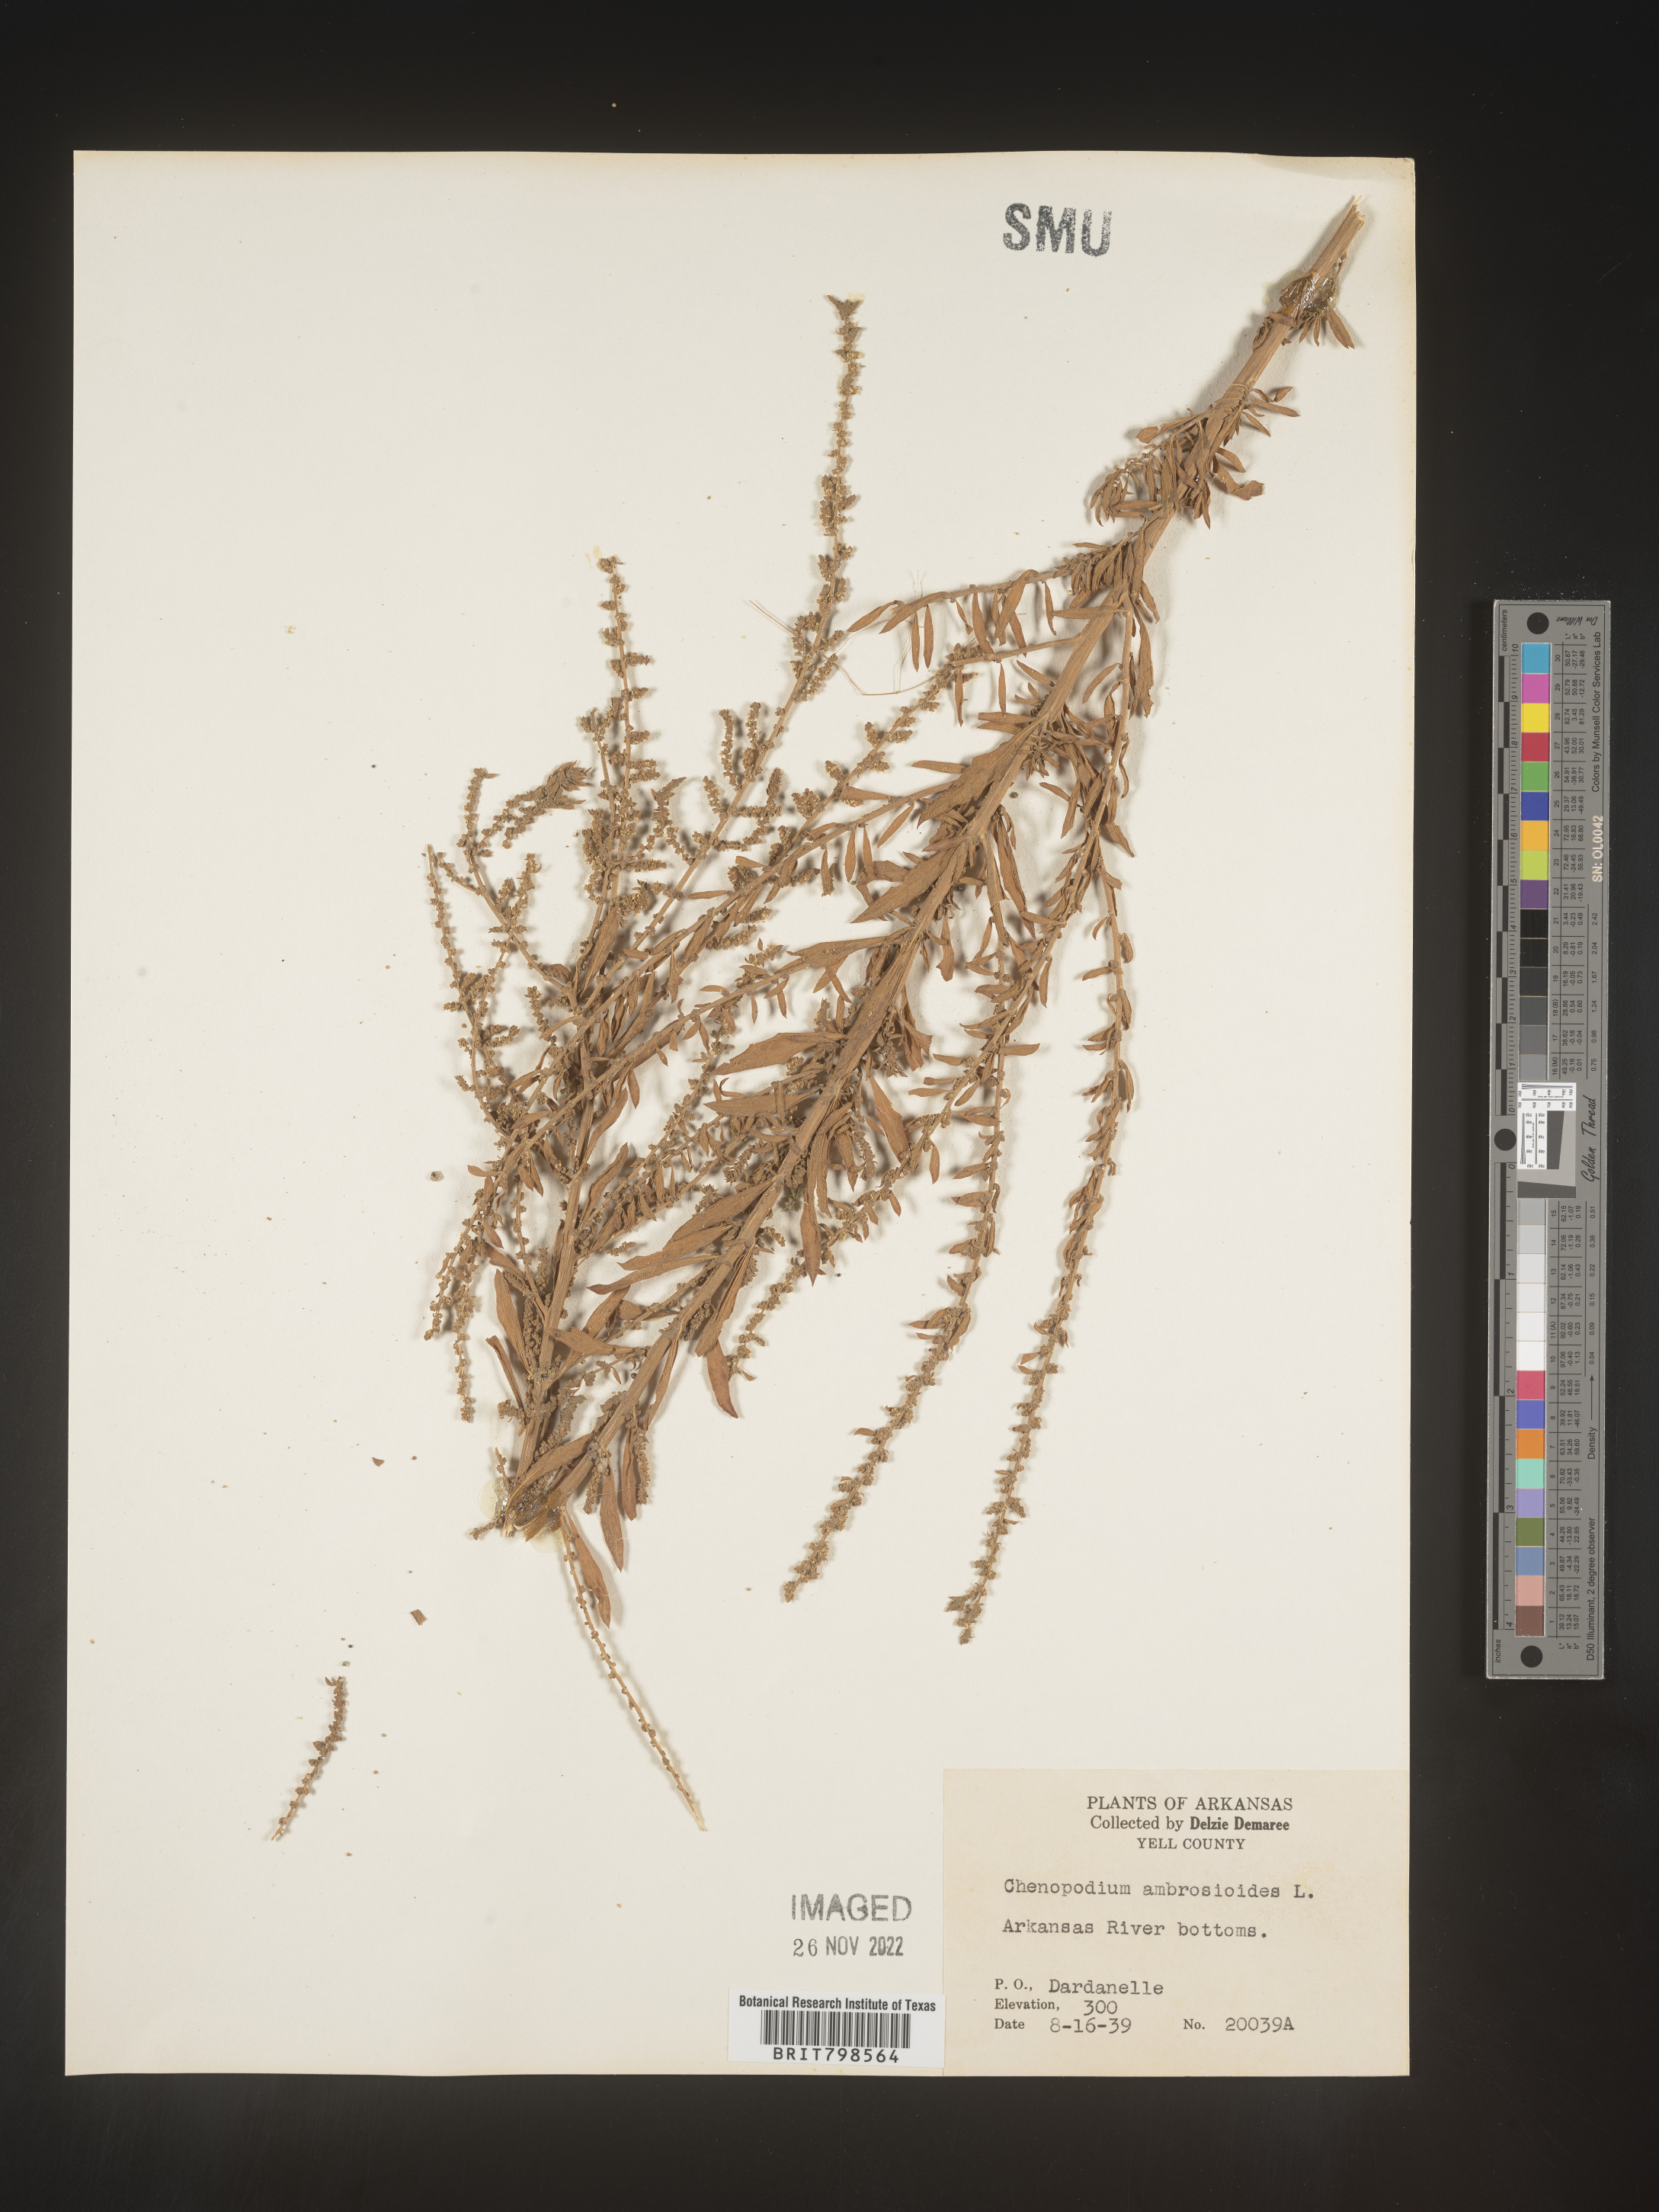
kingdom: Plantae
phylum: Tracheophyta
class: Magnoliopsida
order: Caryophyllales
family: Amaranthaceae
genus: Dysphania
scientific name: Dysphania ambrosioides
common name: Wormseed
